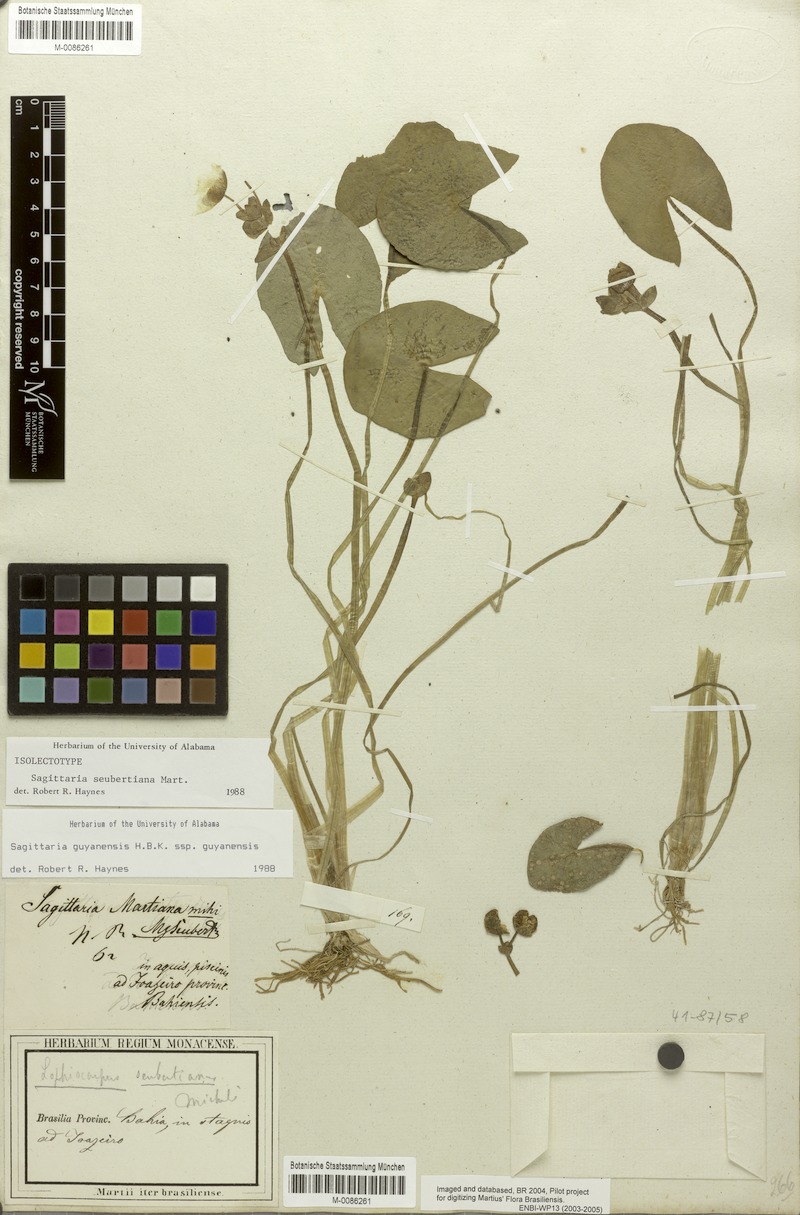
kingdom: Plantae
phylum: Tracheophyta
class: Liliopsida
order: Alismatales
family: Alismataceae
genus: Sagittaria
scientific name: Sagittaria guayanensis
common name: Guyanese arrowhead
